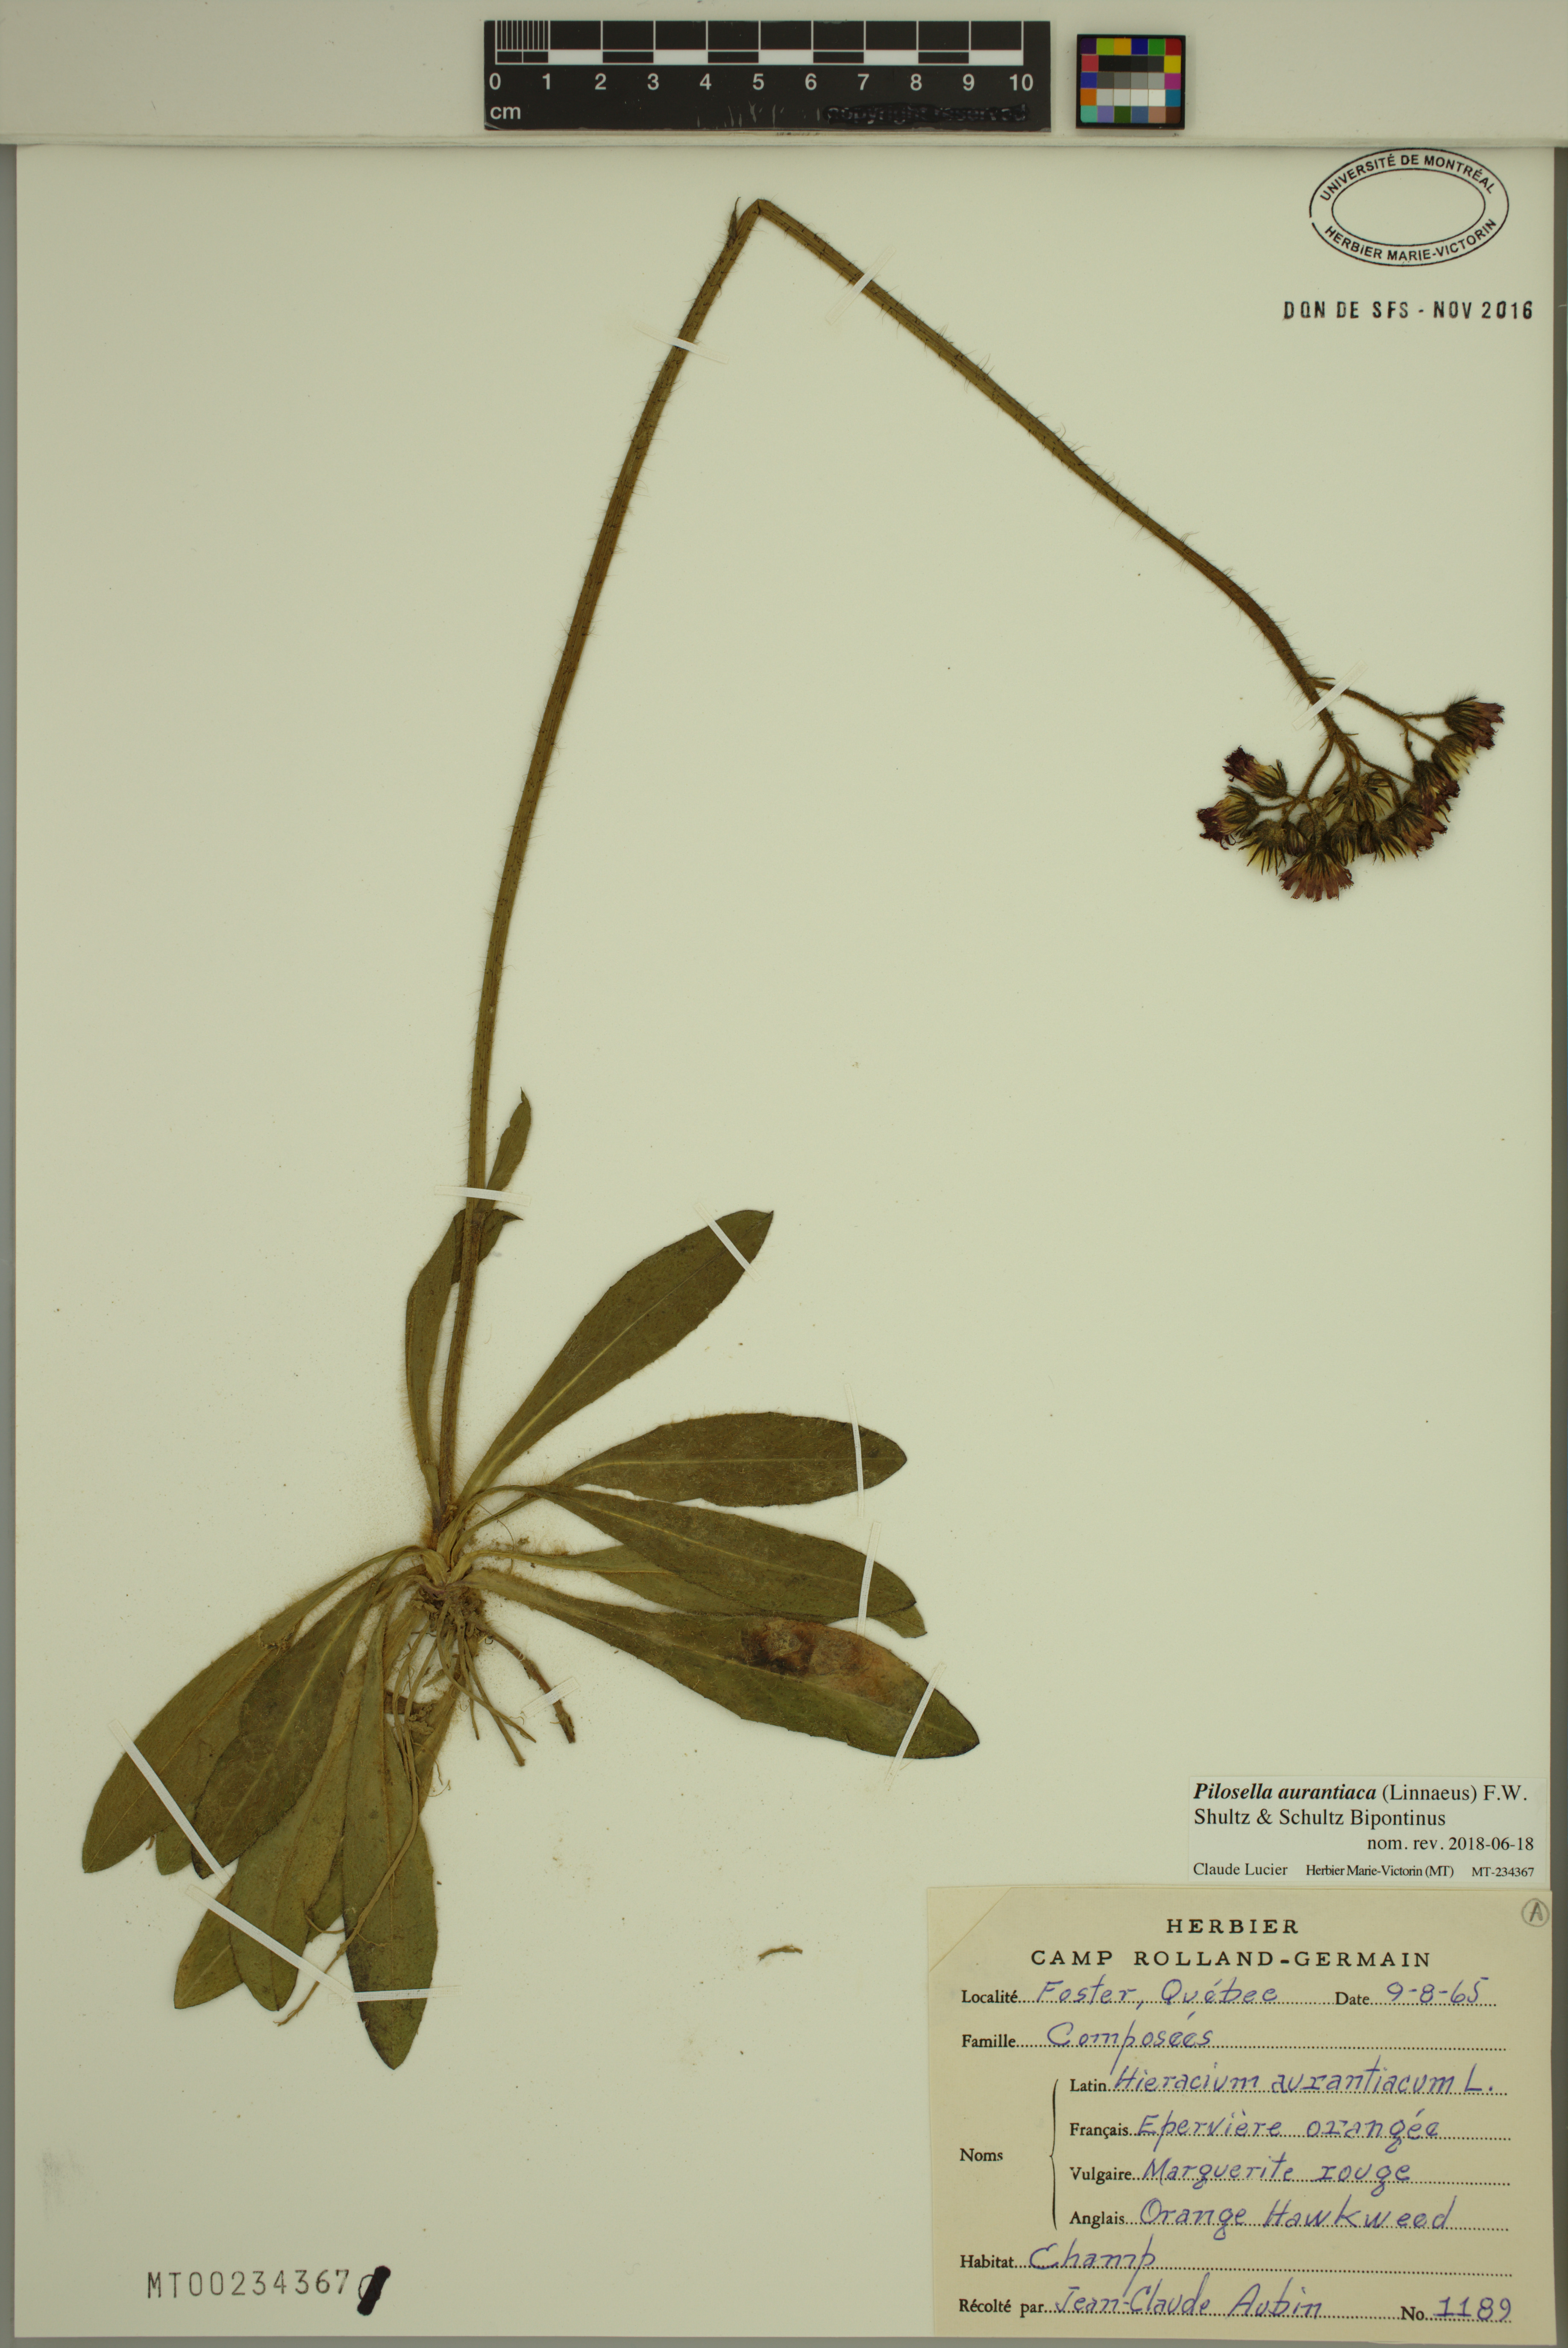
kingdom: Plantae
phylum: Tracheophyta
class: Magnoliopsida
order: Asterales
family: Asteraceae
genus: Pilosella
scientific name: Pilosella aurantiaca
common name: Fox-and-cubs
